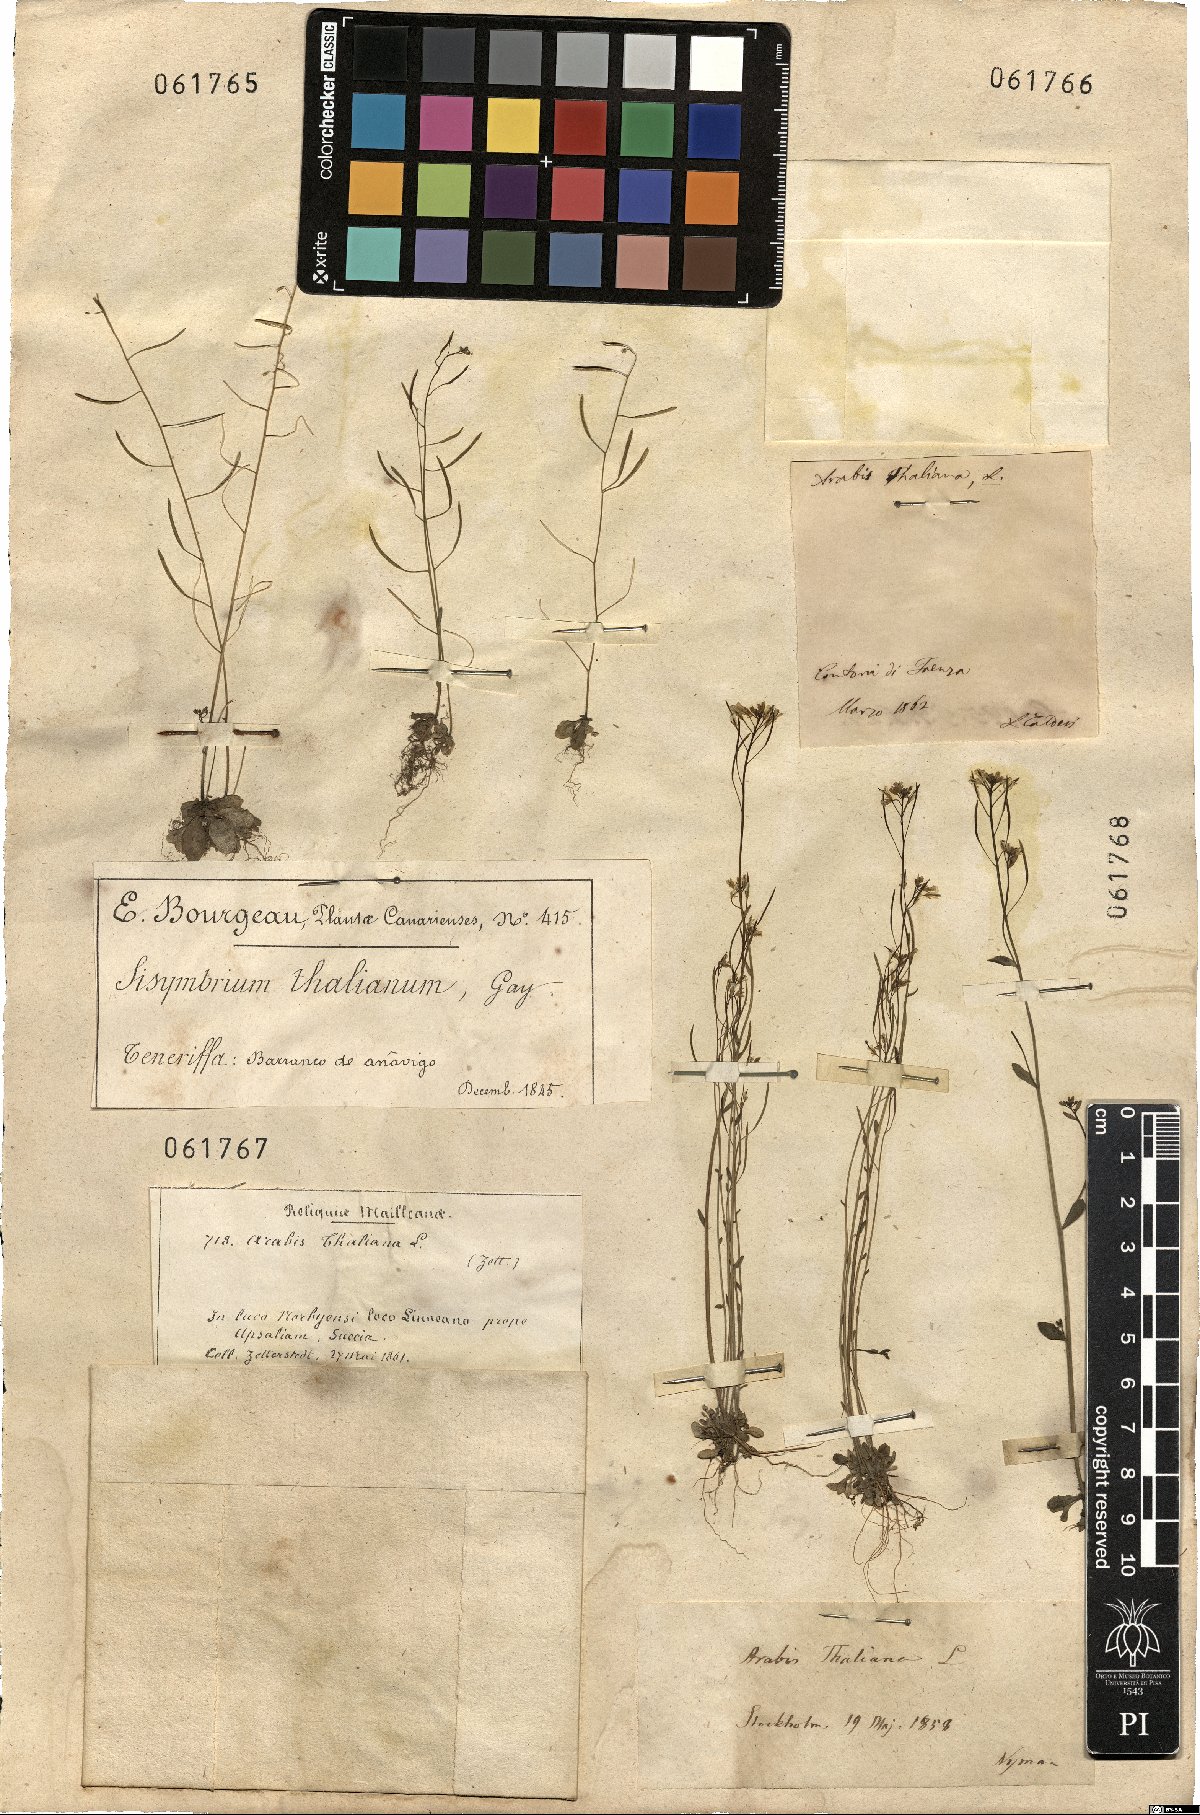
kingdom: Plantae
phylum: Tracheophyta
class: Magnoliopsida
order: Brassicales
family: Brassicaceae
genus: Arabidopsis
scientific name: Arabidopsis thaliana
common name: Thale cress
